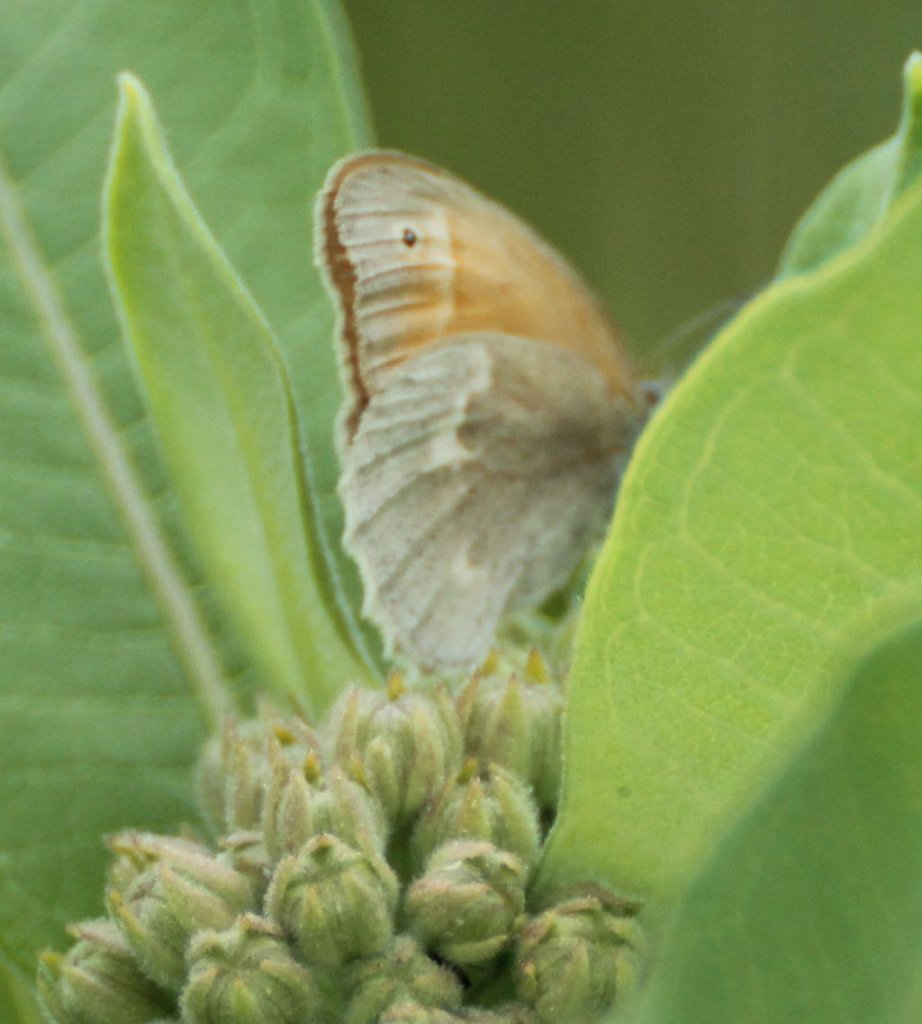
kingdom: Animalia
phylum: Arthropoda
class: Insecta
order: Lepidoptera
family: Nymphalidae
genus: Coenonympha
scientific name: Coenonympha tullia
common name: Large Heath
